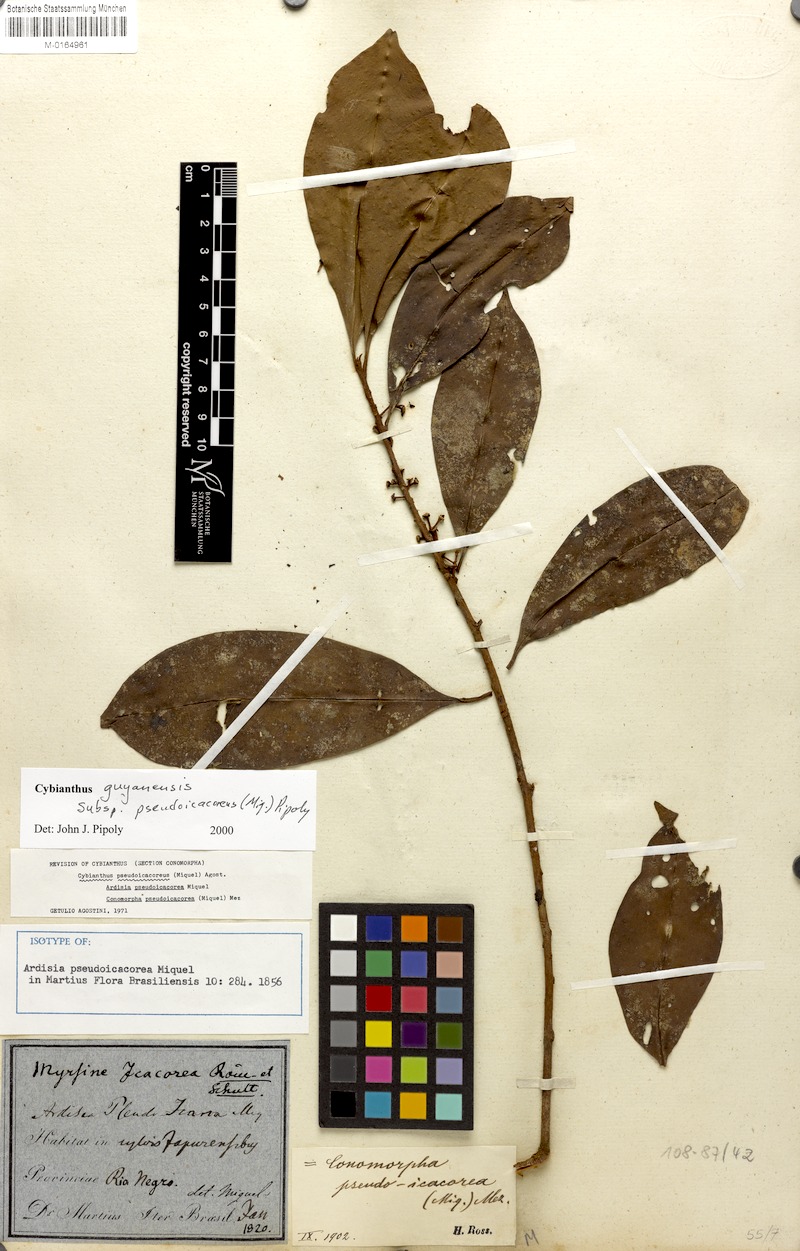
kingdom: Plantae
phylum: Tracheophyta
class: Magnoliopsida
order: Ericales
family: Primulaceae
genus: Cybianthus
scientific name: Cybianthus guyanensis
